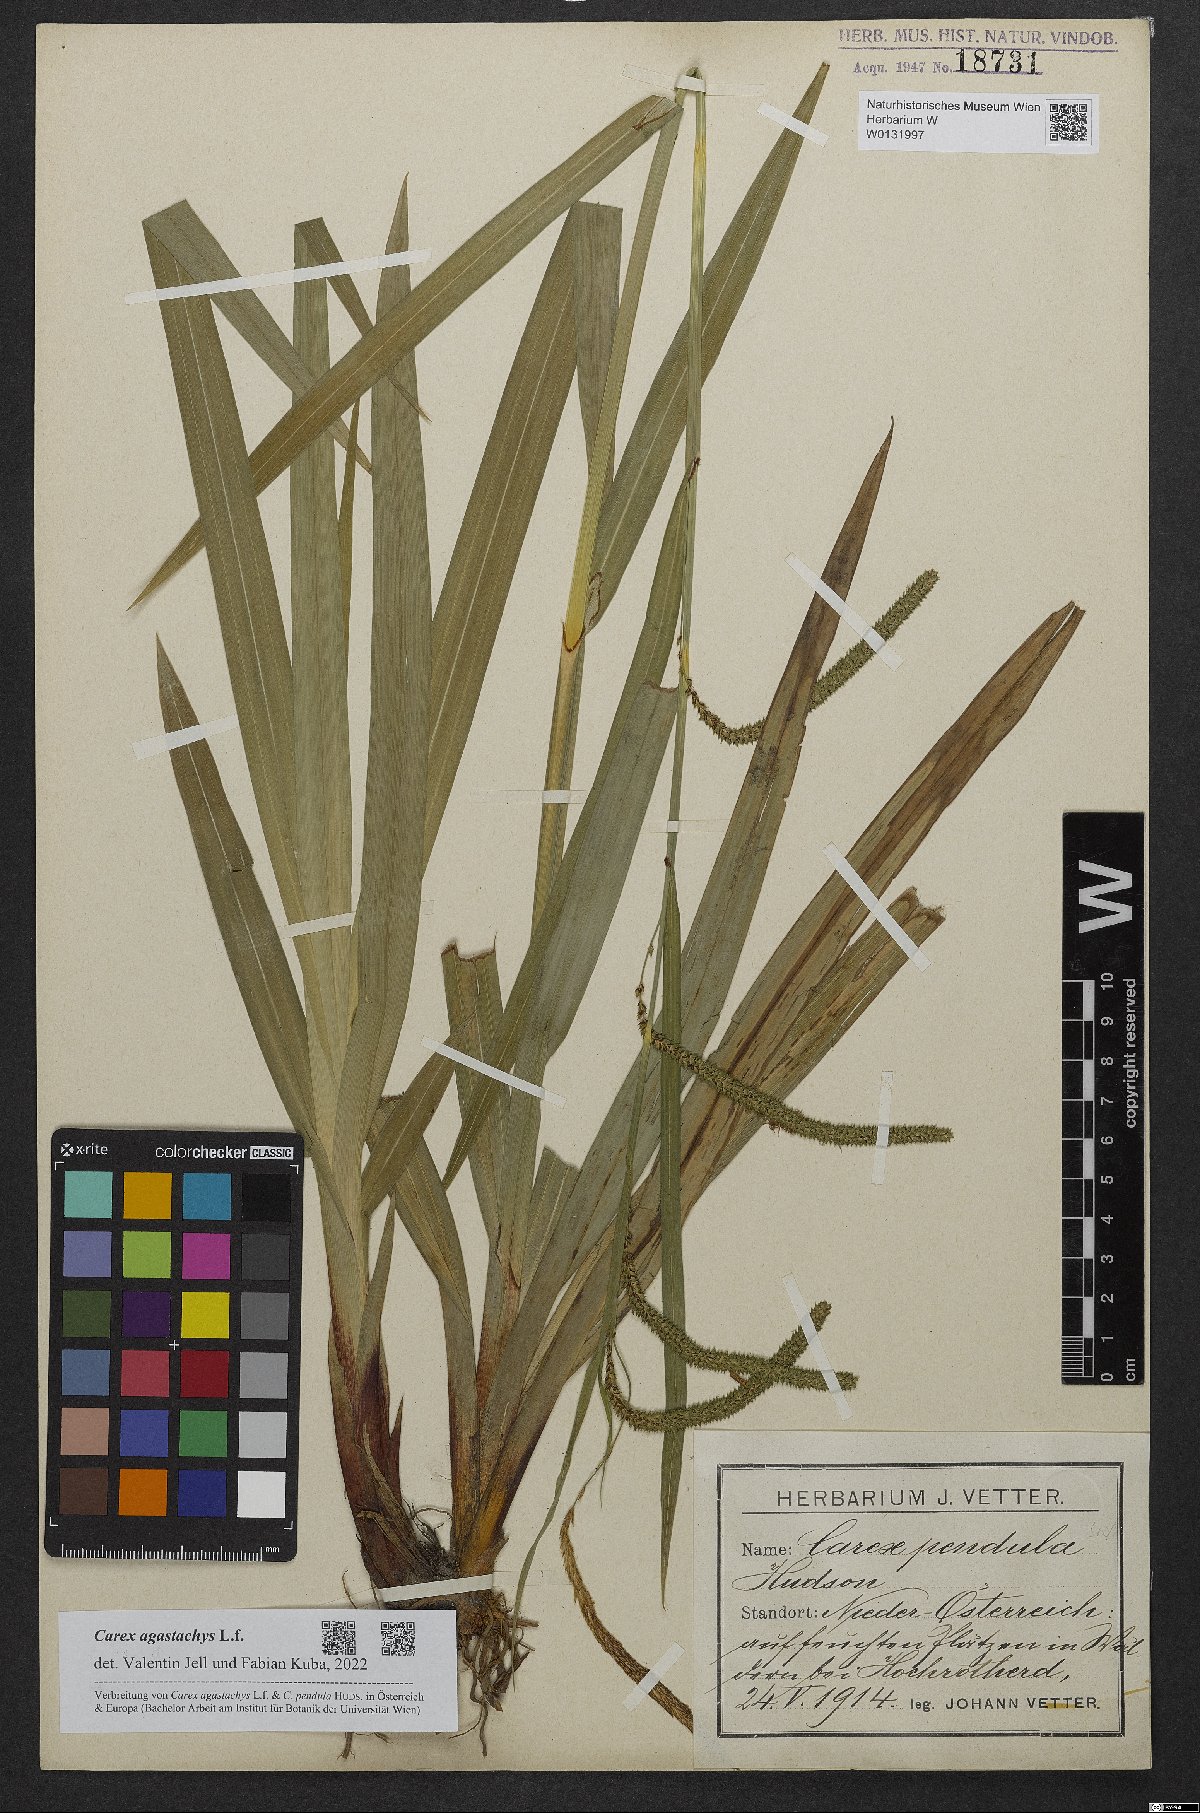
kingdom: Plantae
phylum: Tracheophyta
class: Liliopsida
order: Poales
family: Cyperaceae
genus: Carex
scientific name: Carex agastachys
